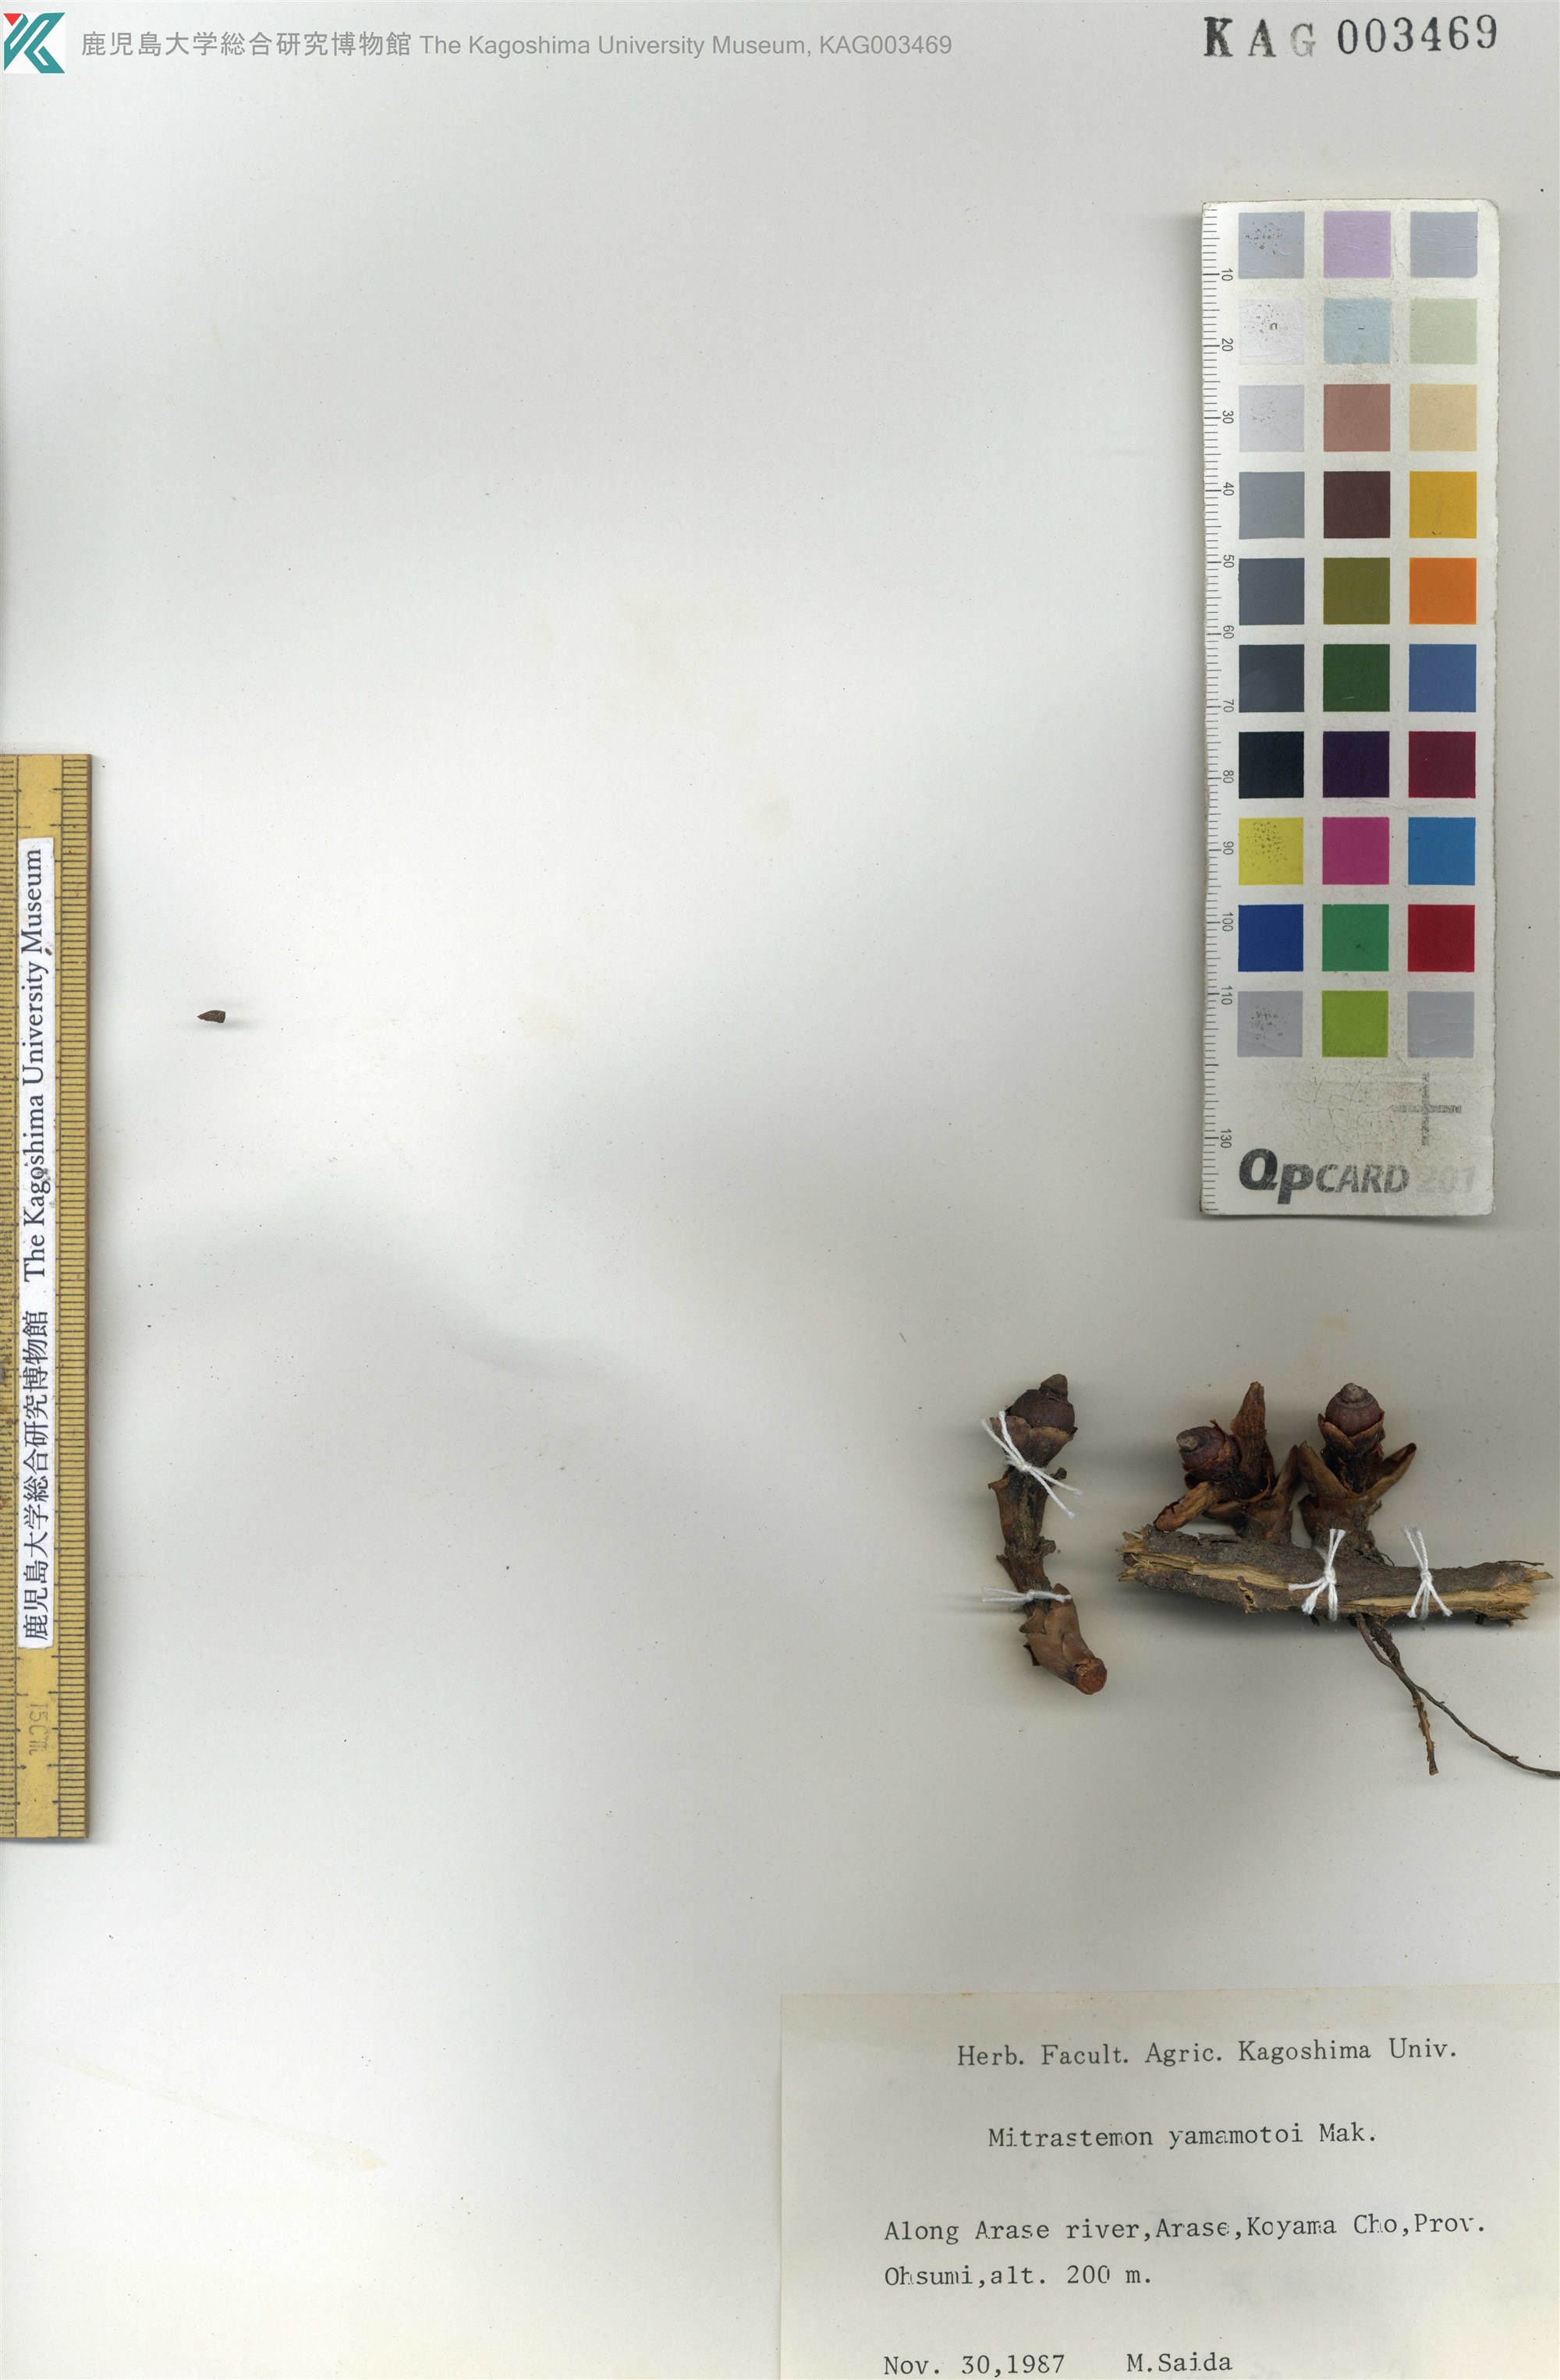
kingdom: Plantae
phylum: Tracheophyta
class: Magnoliopsida
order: Ericales
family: Mitrastemonaceae
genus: Mitrastemon
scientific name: Mitrastemon yamamotoi
